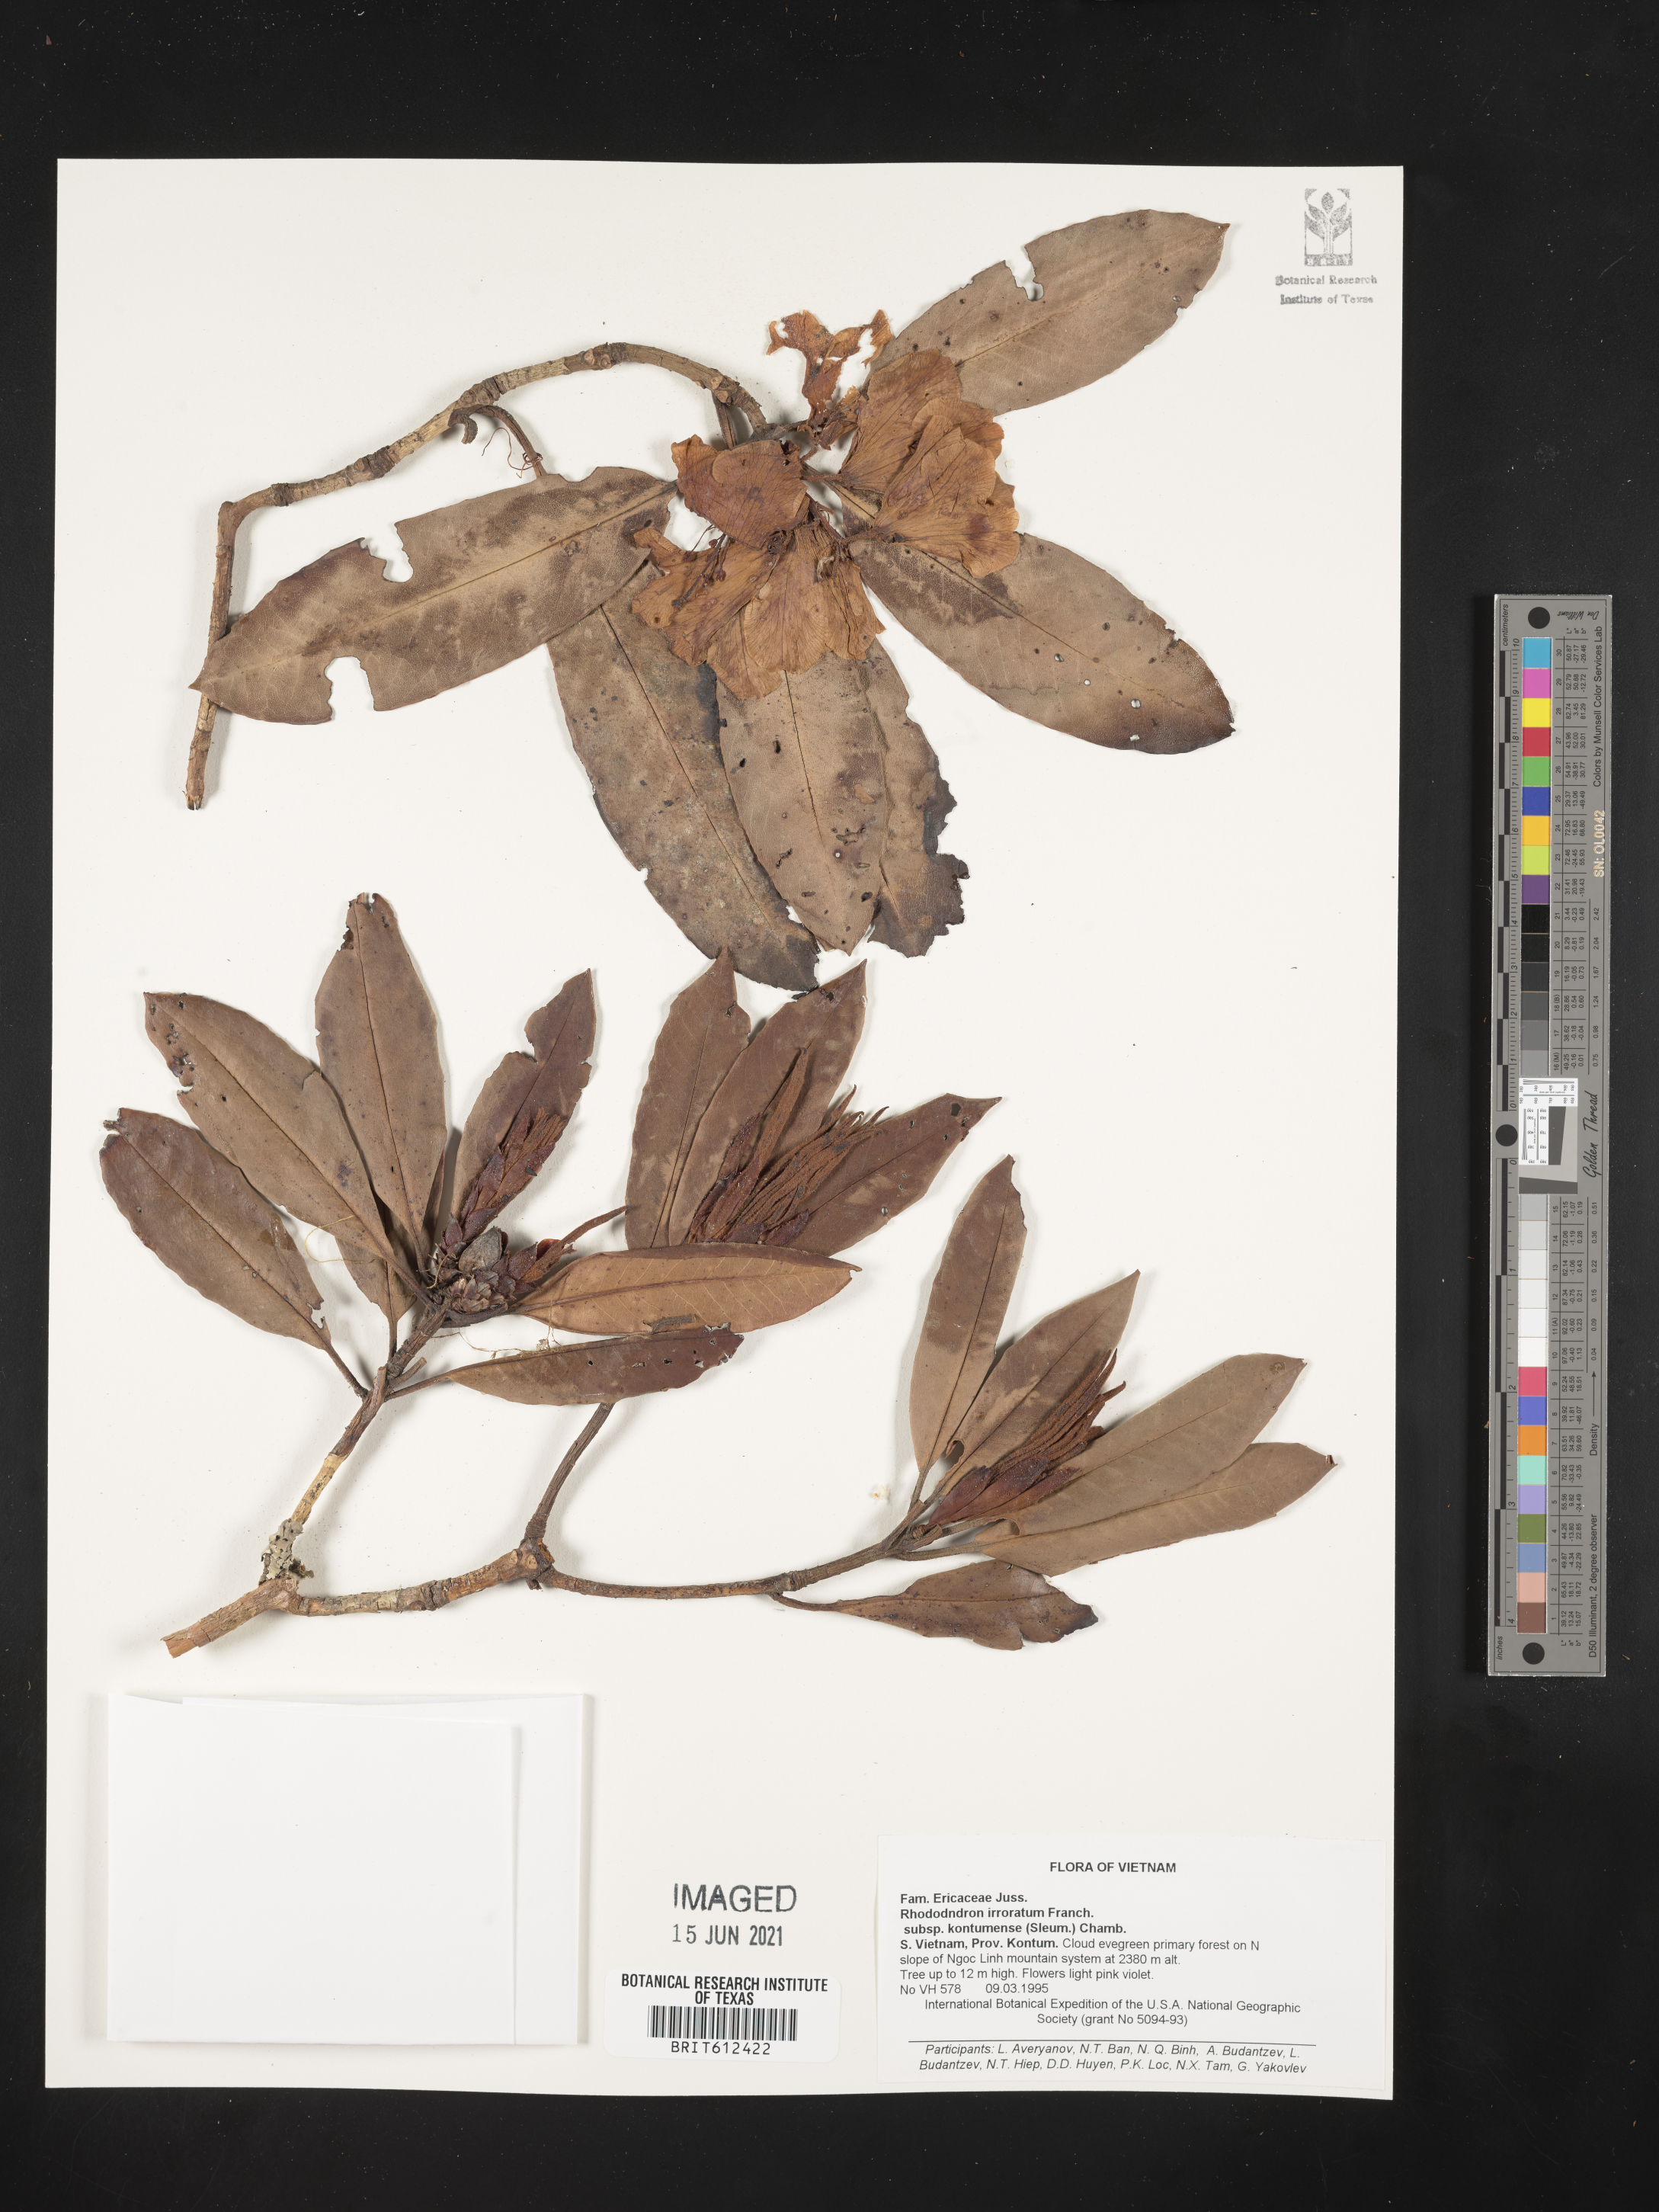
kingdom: Plantae
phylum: Tracheophyta
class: Magnoliopsida
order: Ericales
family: Ericaceae
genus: Rhododendron
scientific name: Rhododendron irroratum
